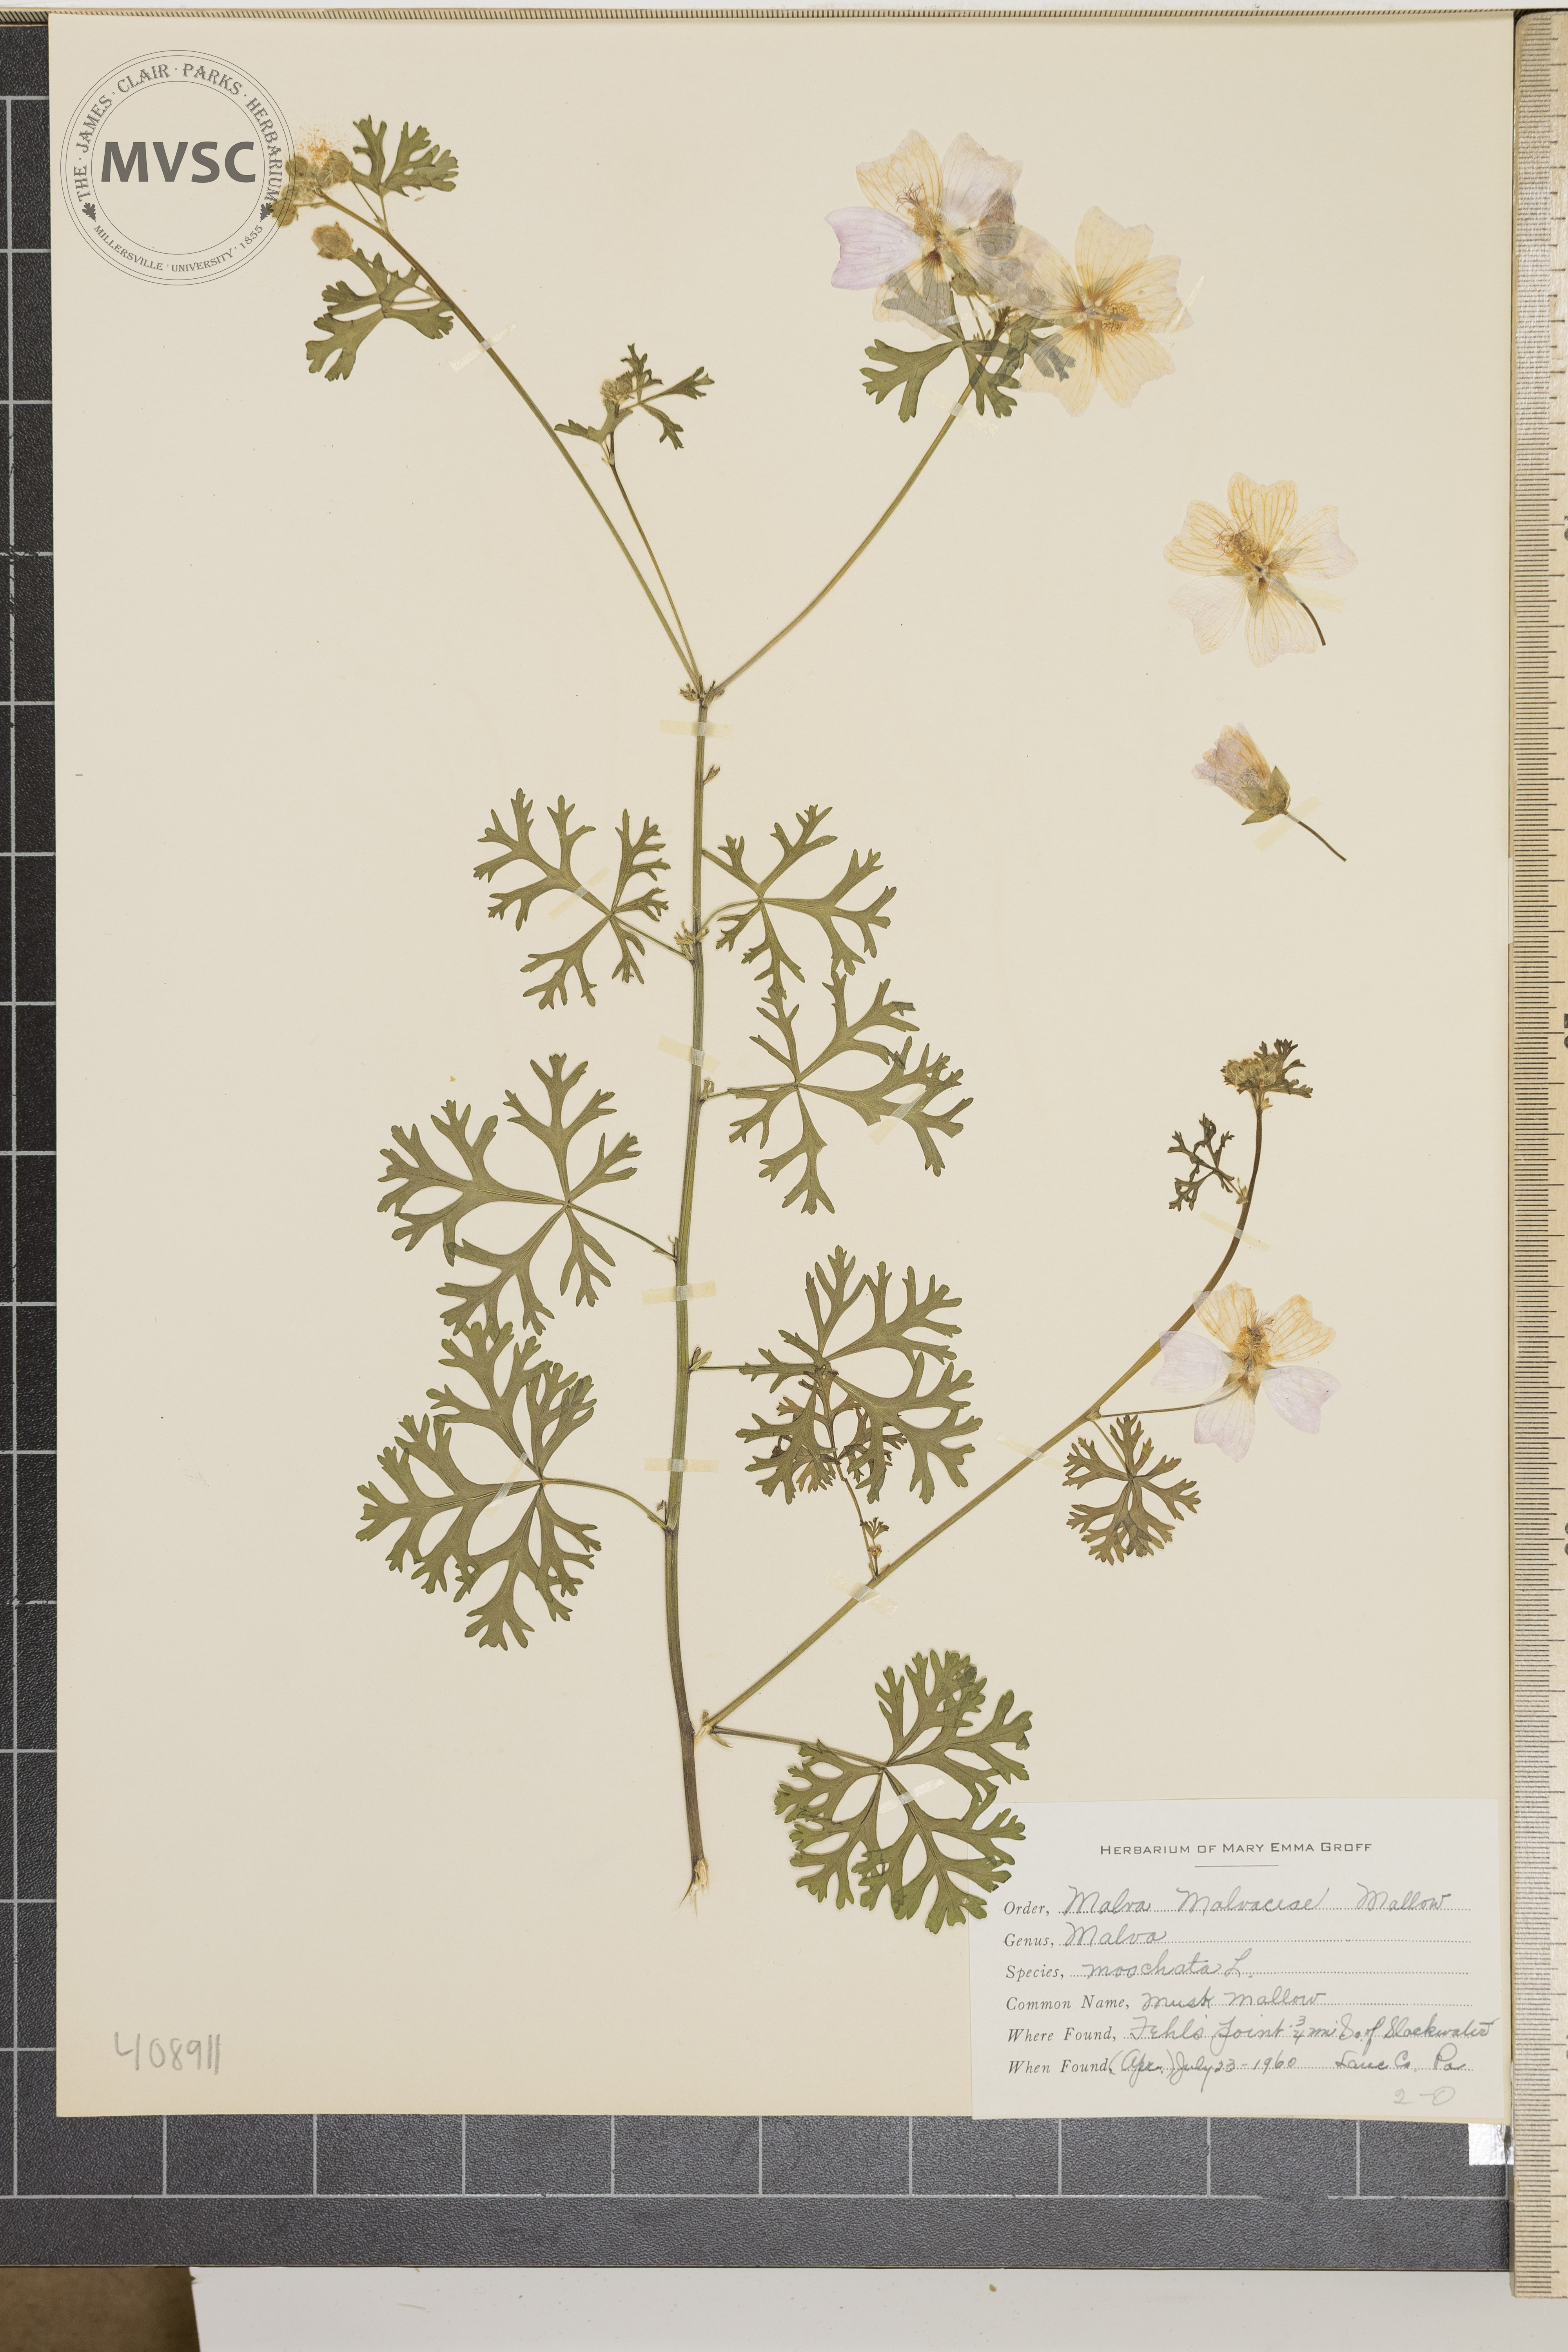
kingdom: Plantae
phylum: Tracheophyta
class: Magnoliopsida
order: Malvales
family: Malvaceae
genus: Malva
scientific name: Malva moschata
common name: Musk Mallow
